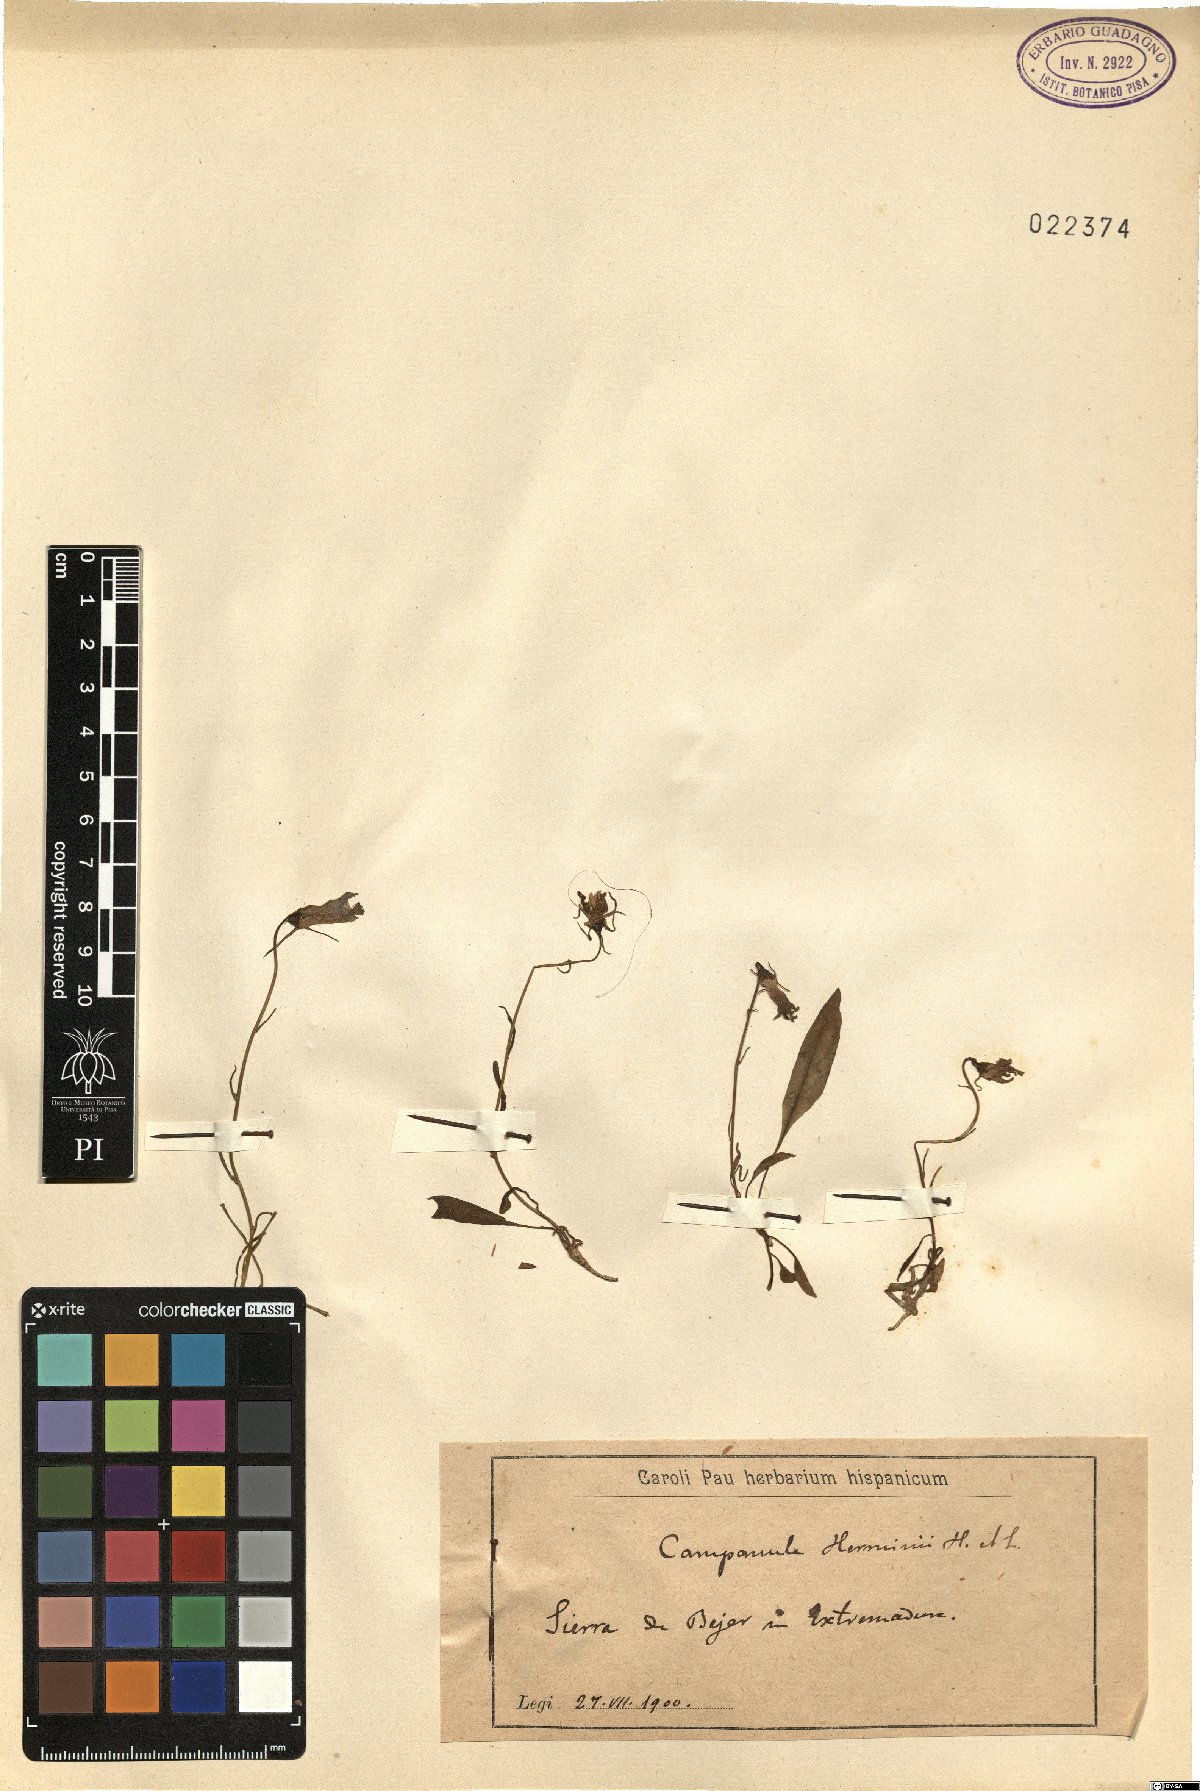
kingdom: Plantae
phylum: Tracheophyta
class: Magnoliopsida
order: Asterales
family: Campanulaceae
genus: Campanula
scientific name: Campanula herminii
